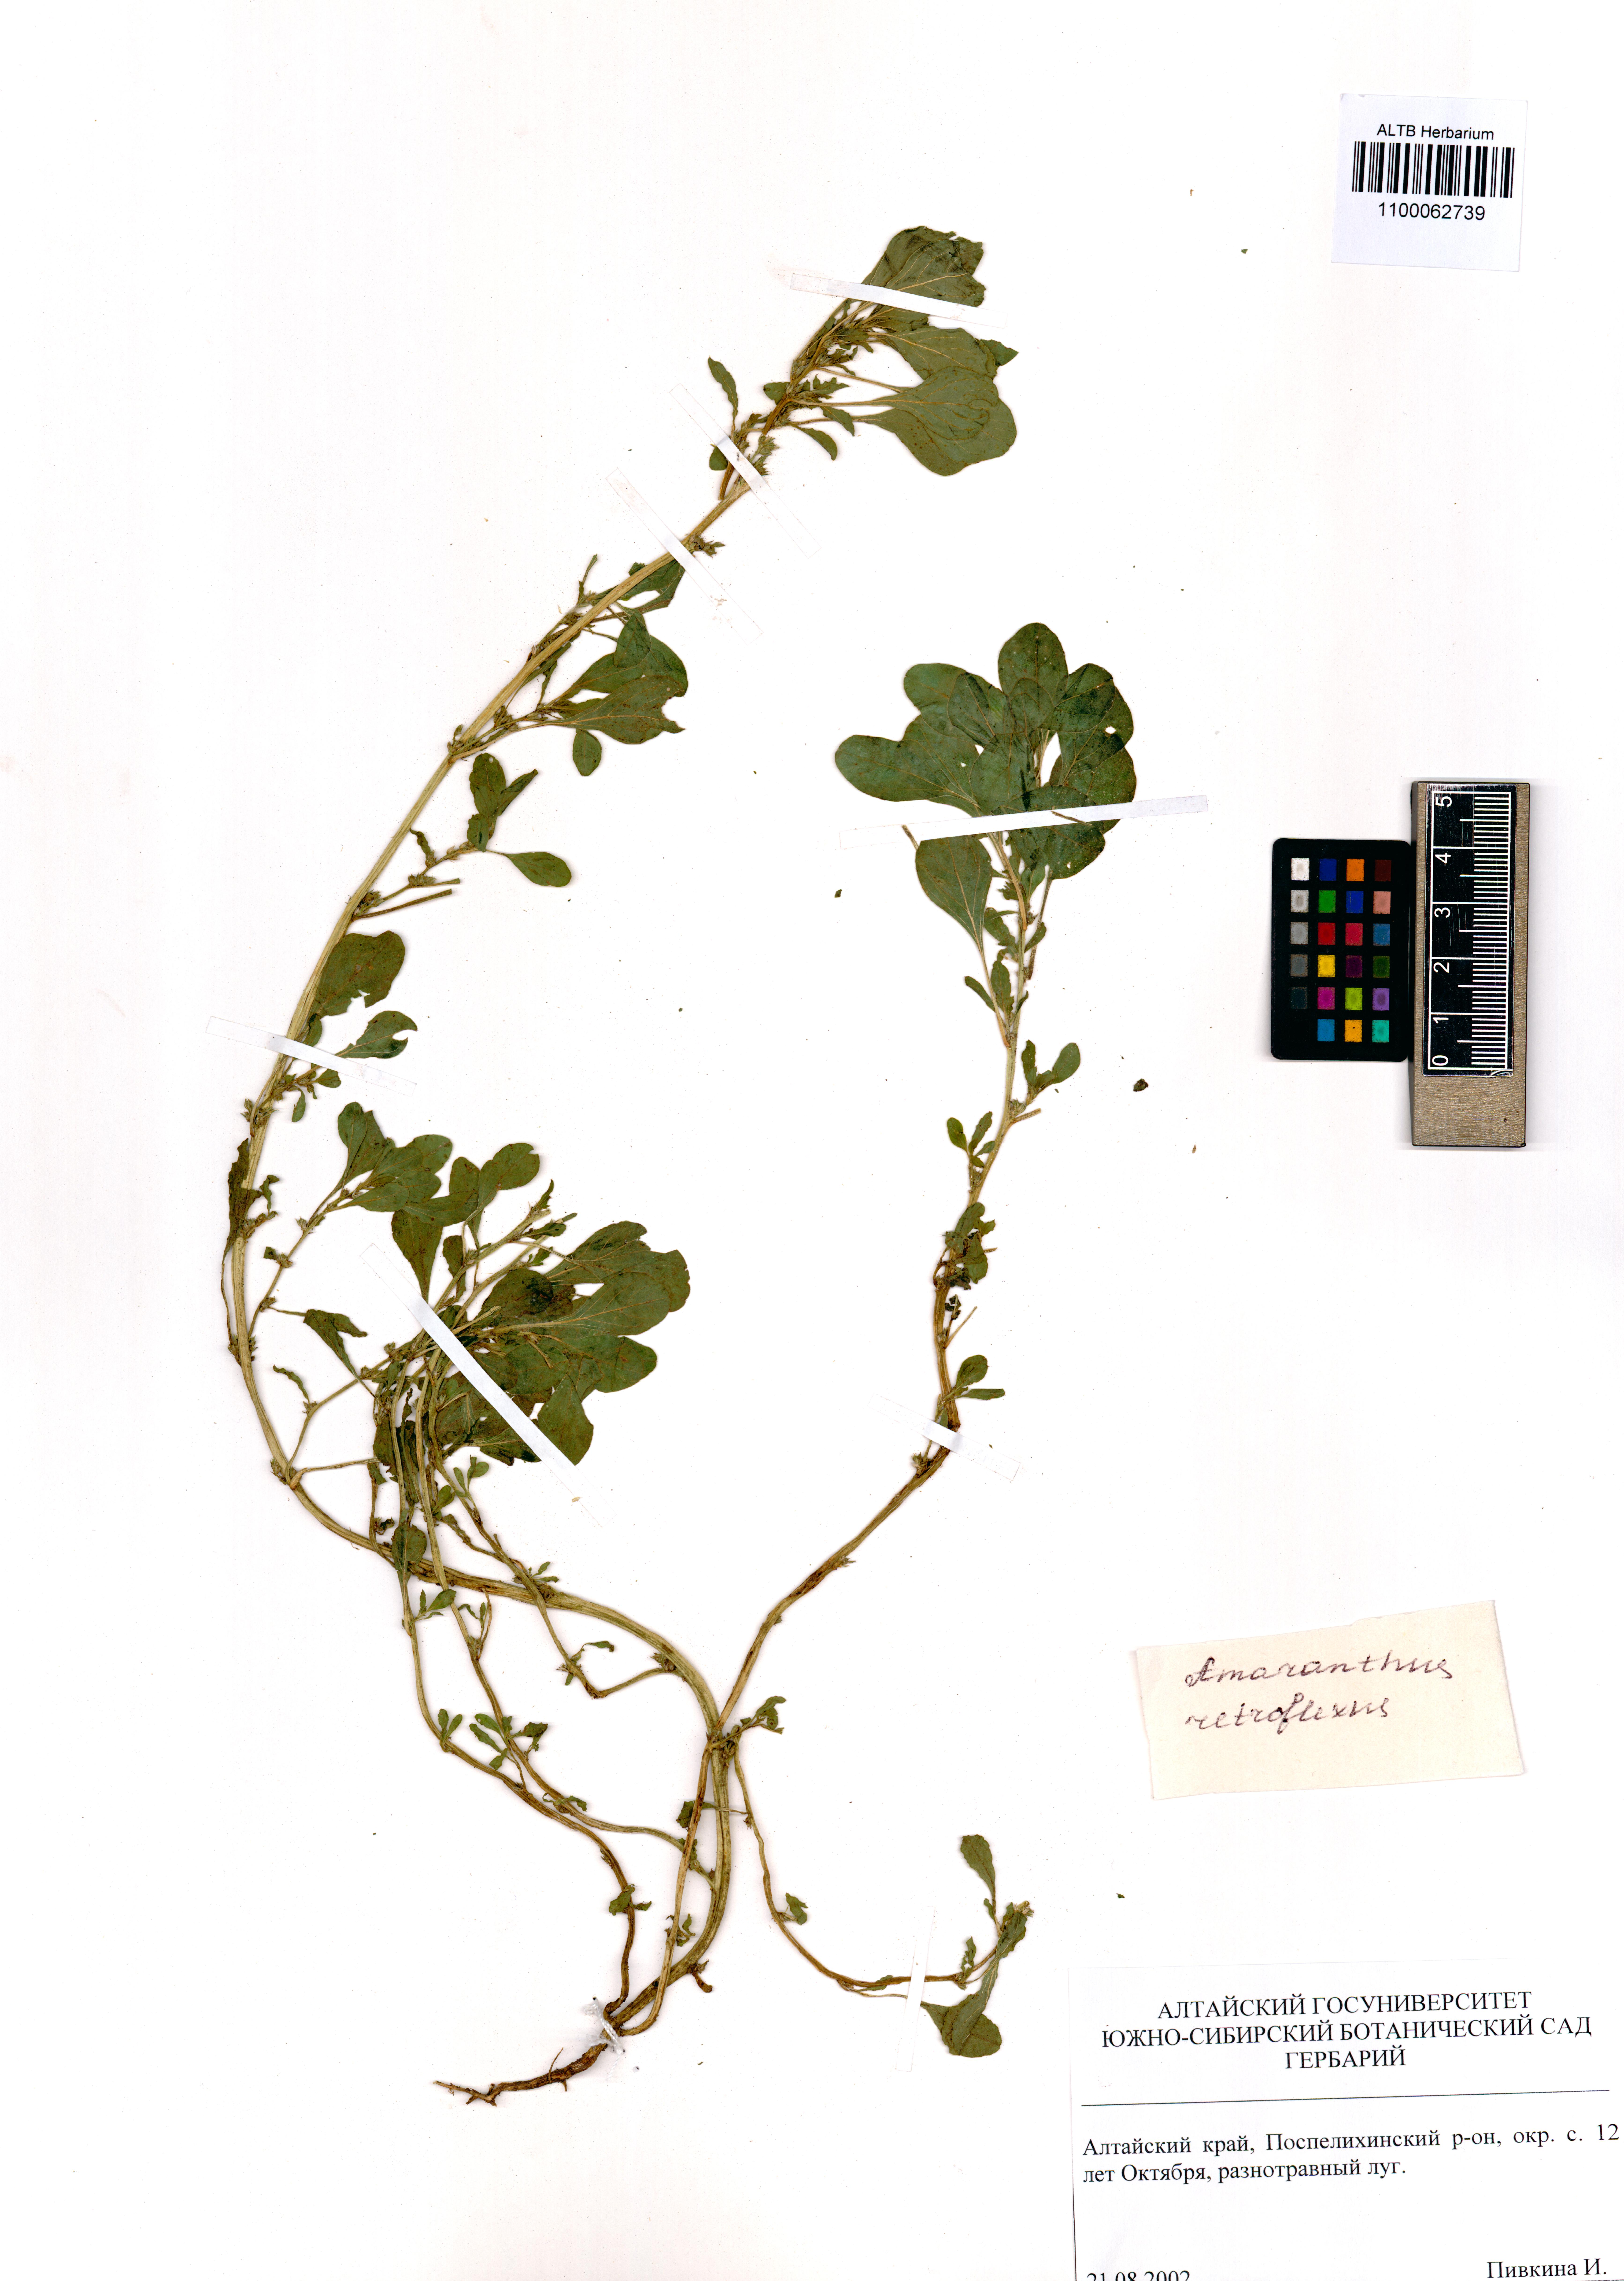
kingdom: Plantae
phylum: Tracheophyta
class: Magnoliopsida
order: Caryophyllales
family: Amaranthaceae
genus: Amaranthus
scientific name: Amaranthus retroflexus
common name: Redroot amaranth
